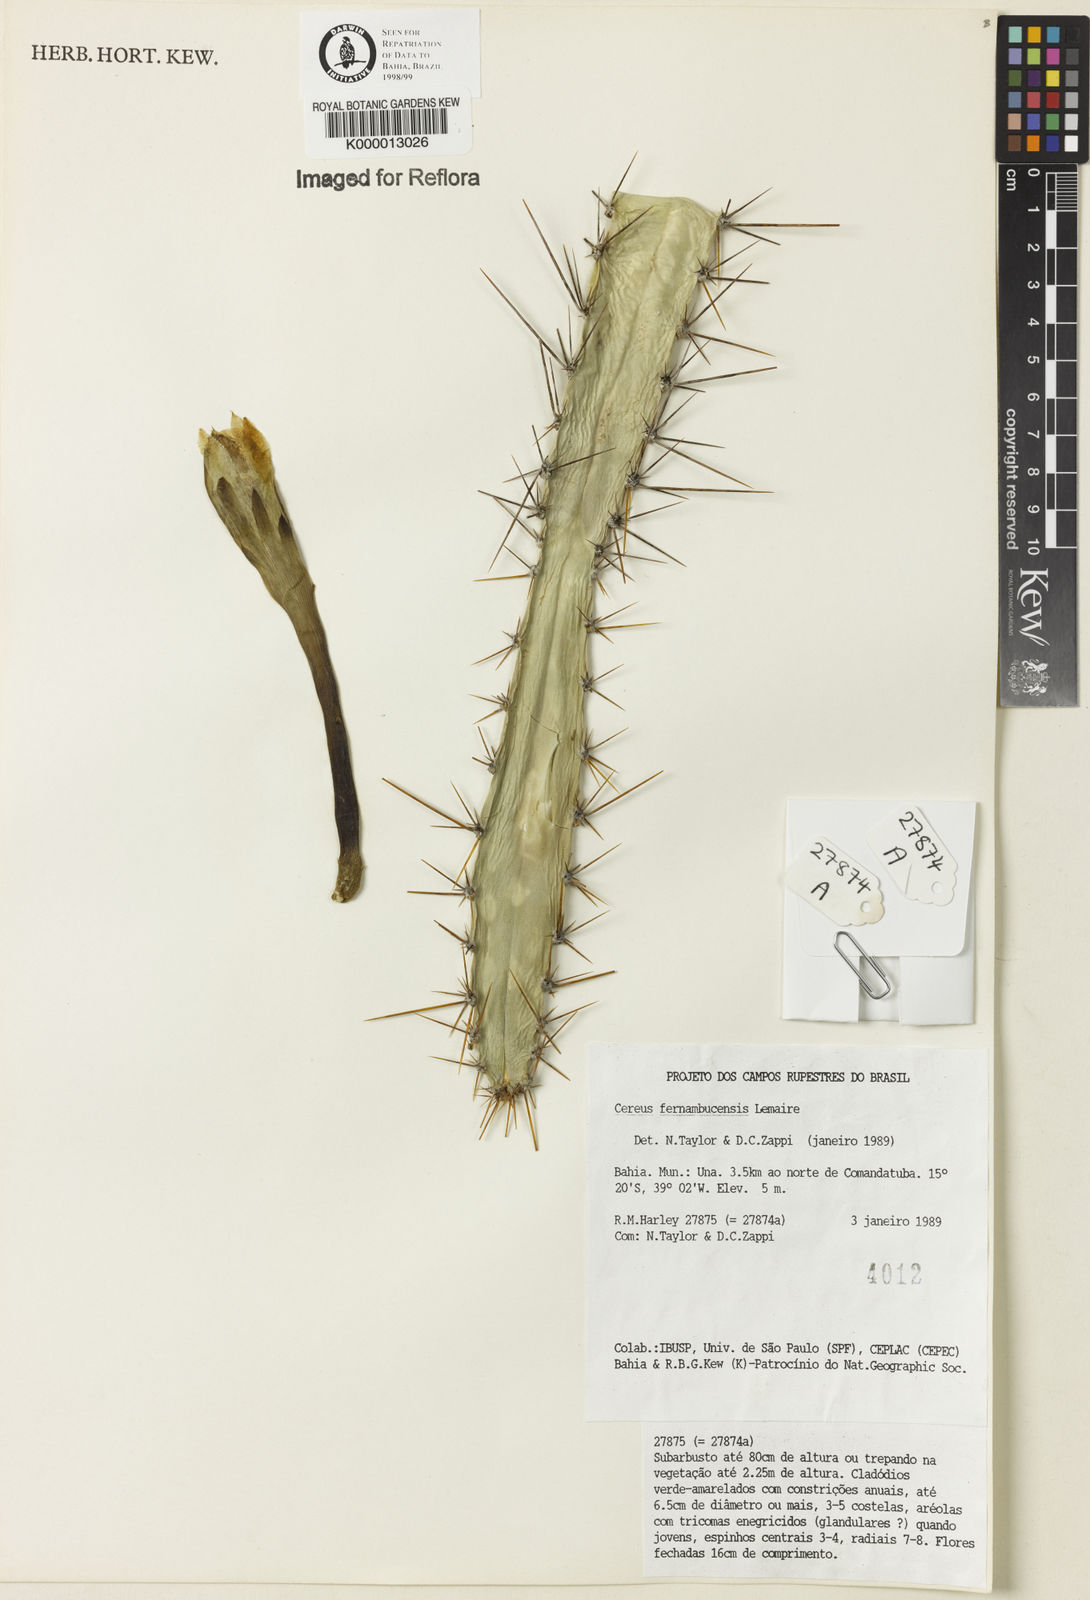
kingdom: Plantae
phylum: Tracheophyta
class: Magnoliopsida
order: Caryophyllales
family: Cactaceae
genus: Cereus
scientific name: Cereus fernambucensis
